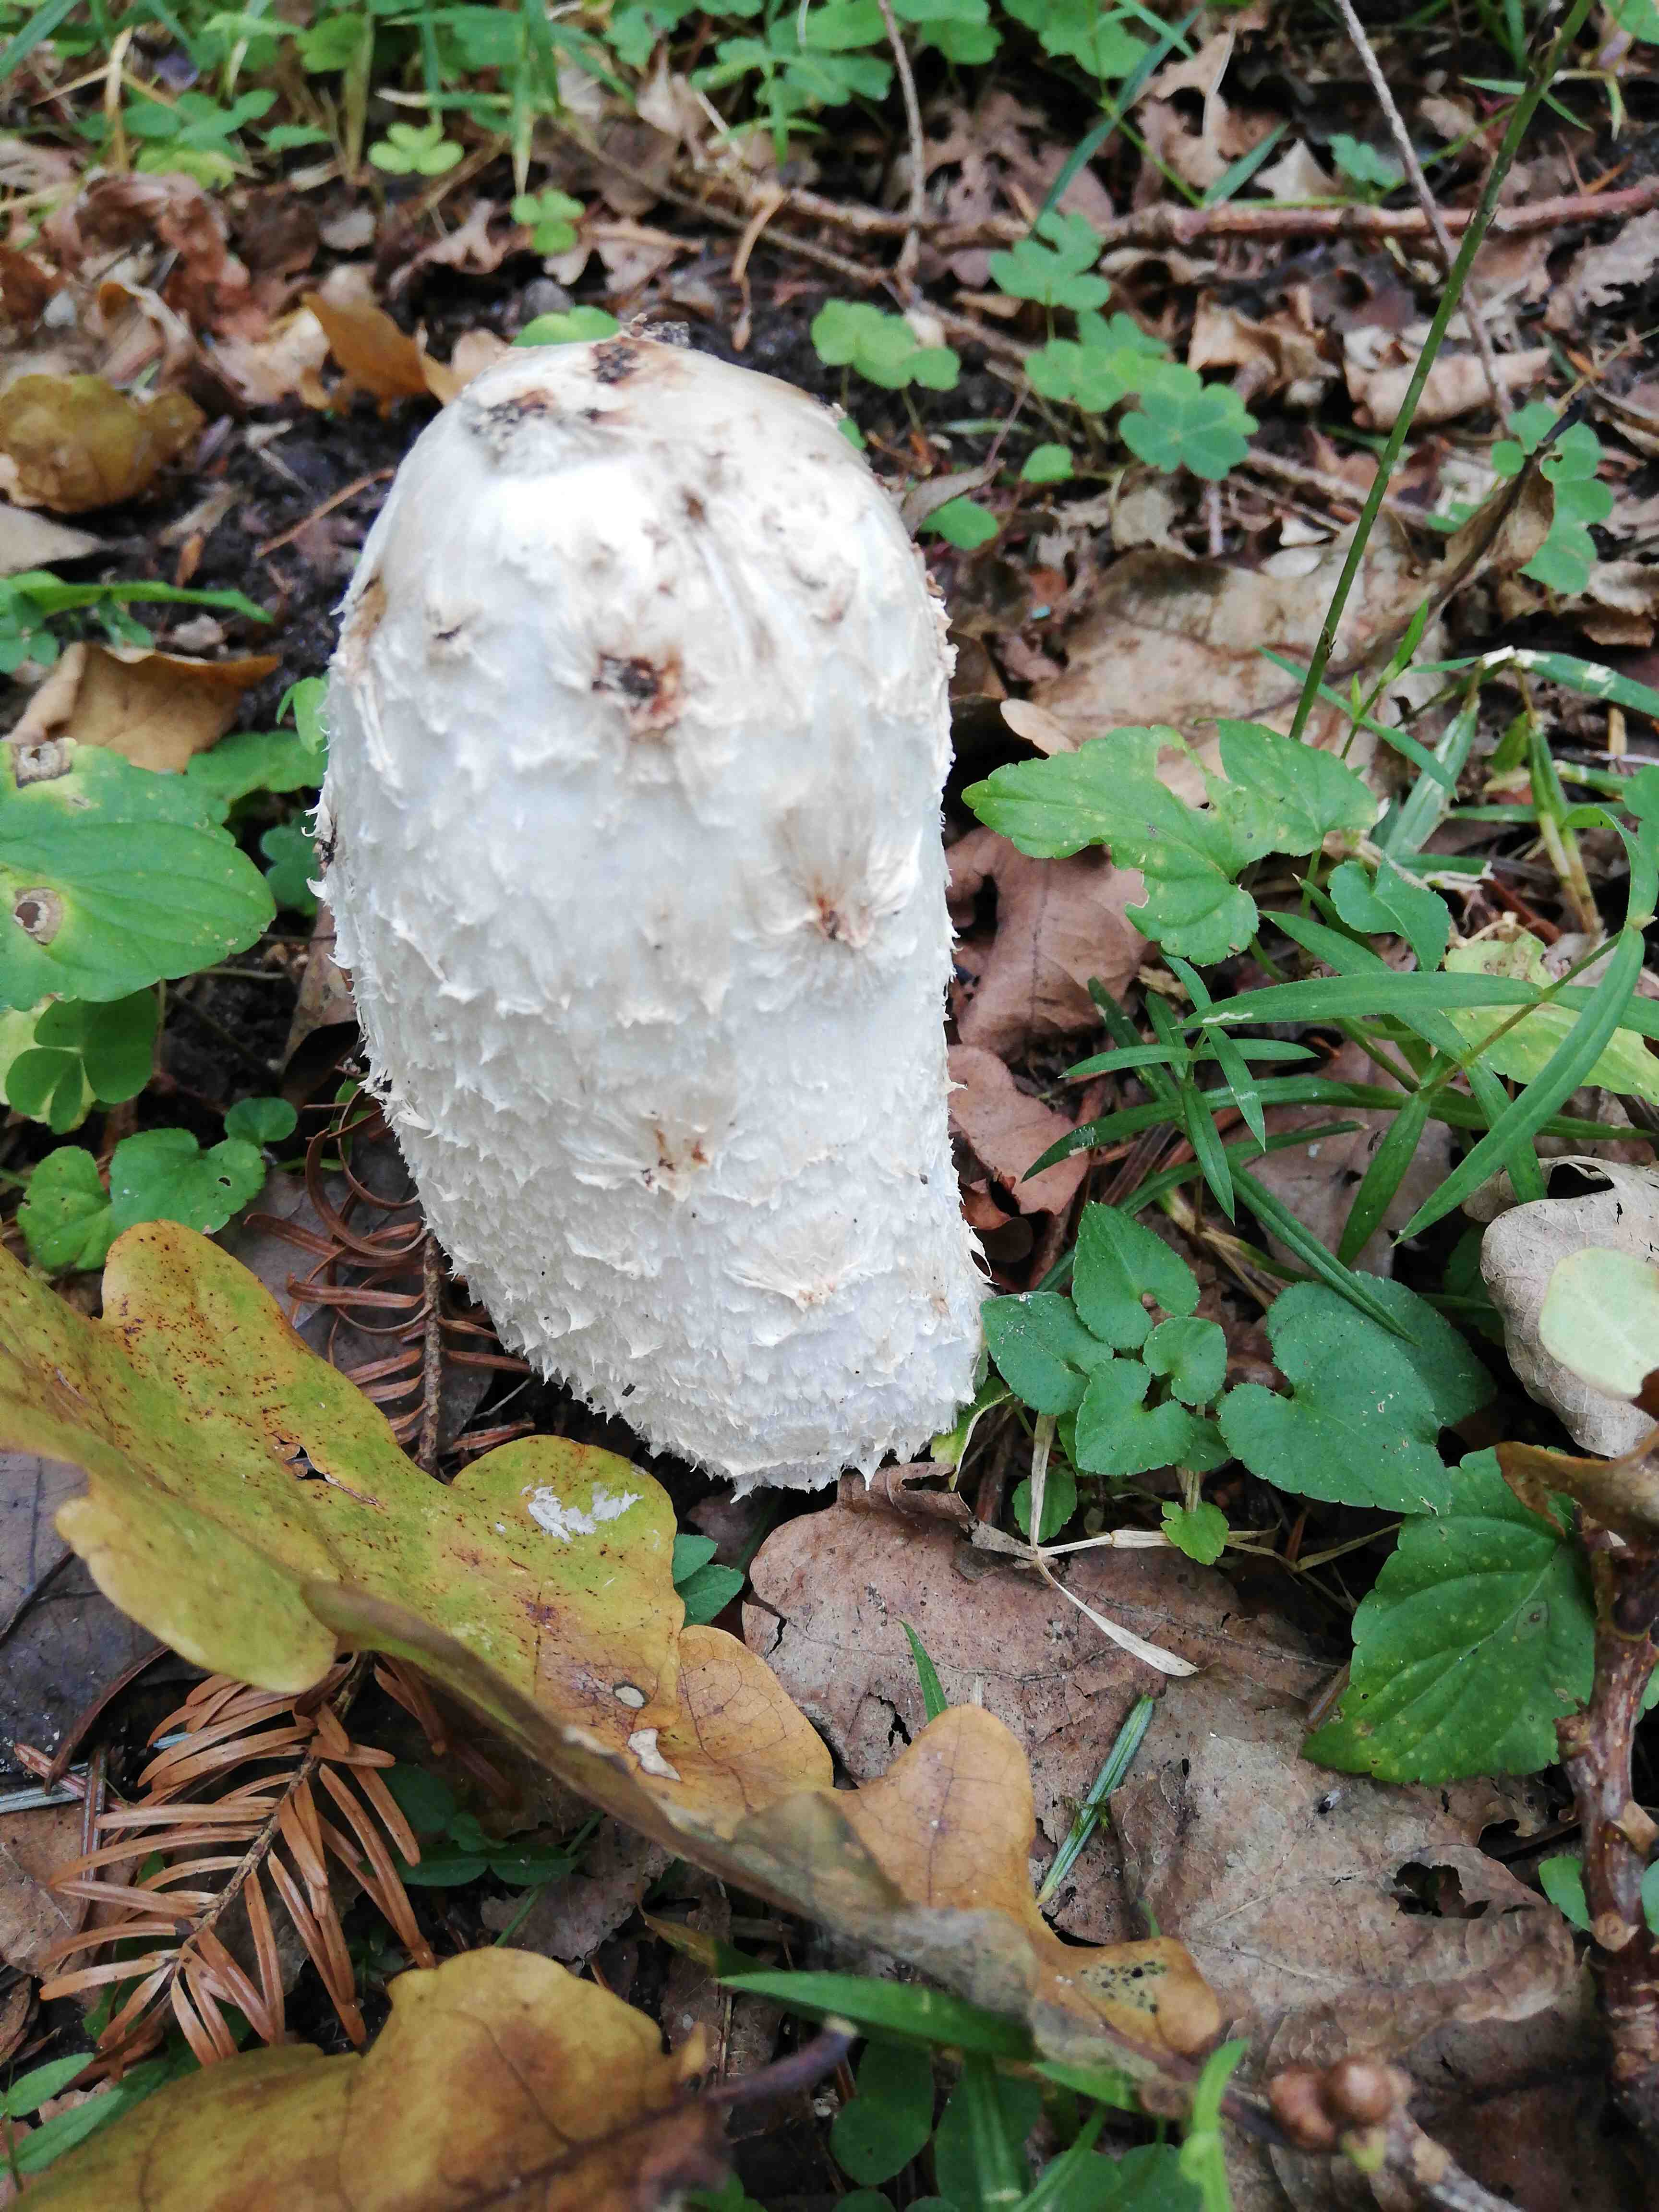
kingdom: Fungi
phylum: Basidiomycota
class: Agaricomycetes
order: Agaricales
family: Agaricaceae
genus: Coprinus
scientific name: Coprinus comatus
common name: stor parykhat
